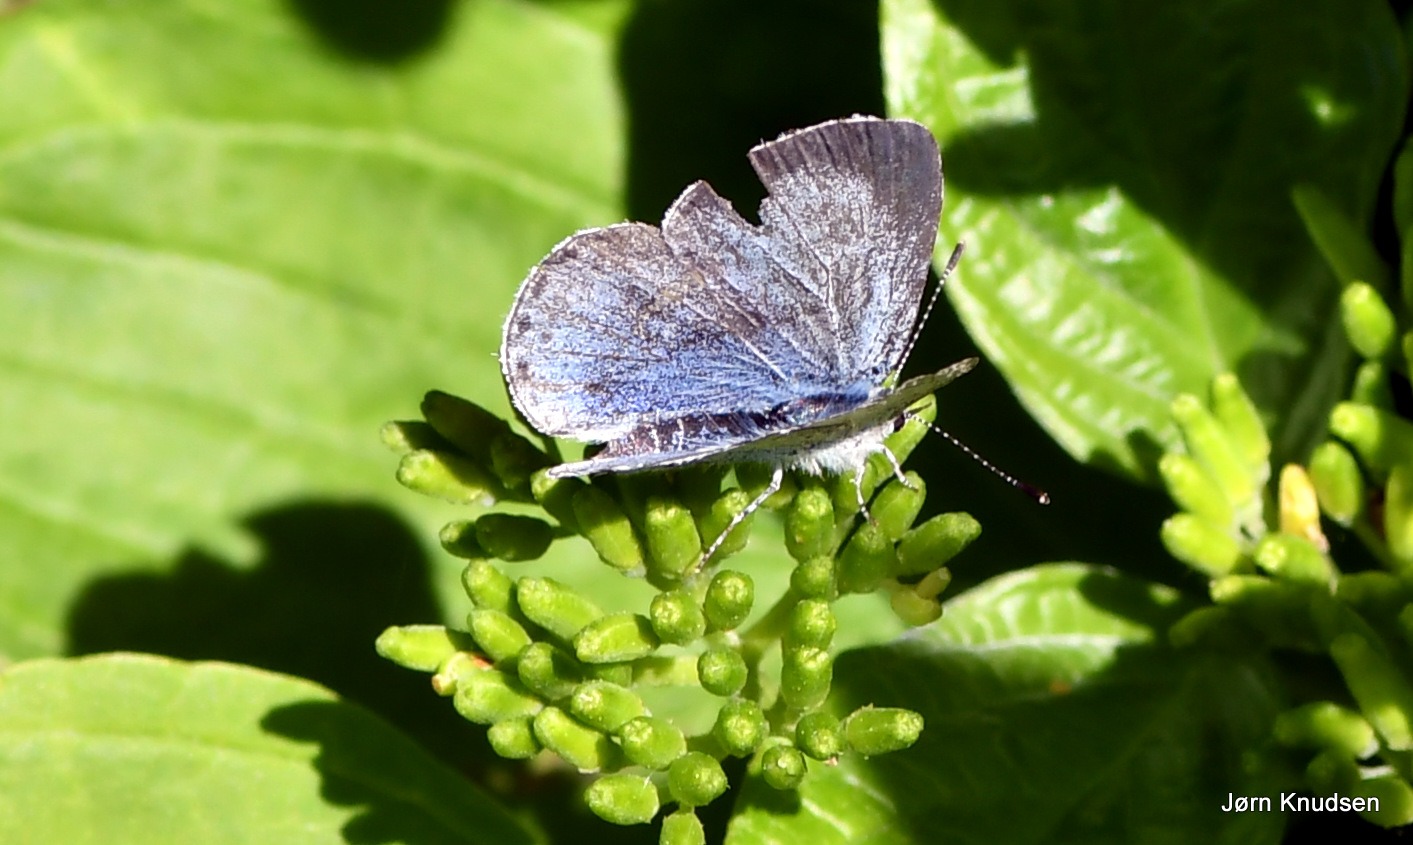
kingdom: Animalia
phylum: Arthropoda
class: Insecta
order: Lepidoptera
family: Lycaenidae
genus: Celastrina
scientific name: Celastrina argiolus
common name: Skovblåfugl
